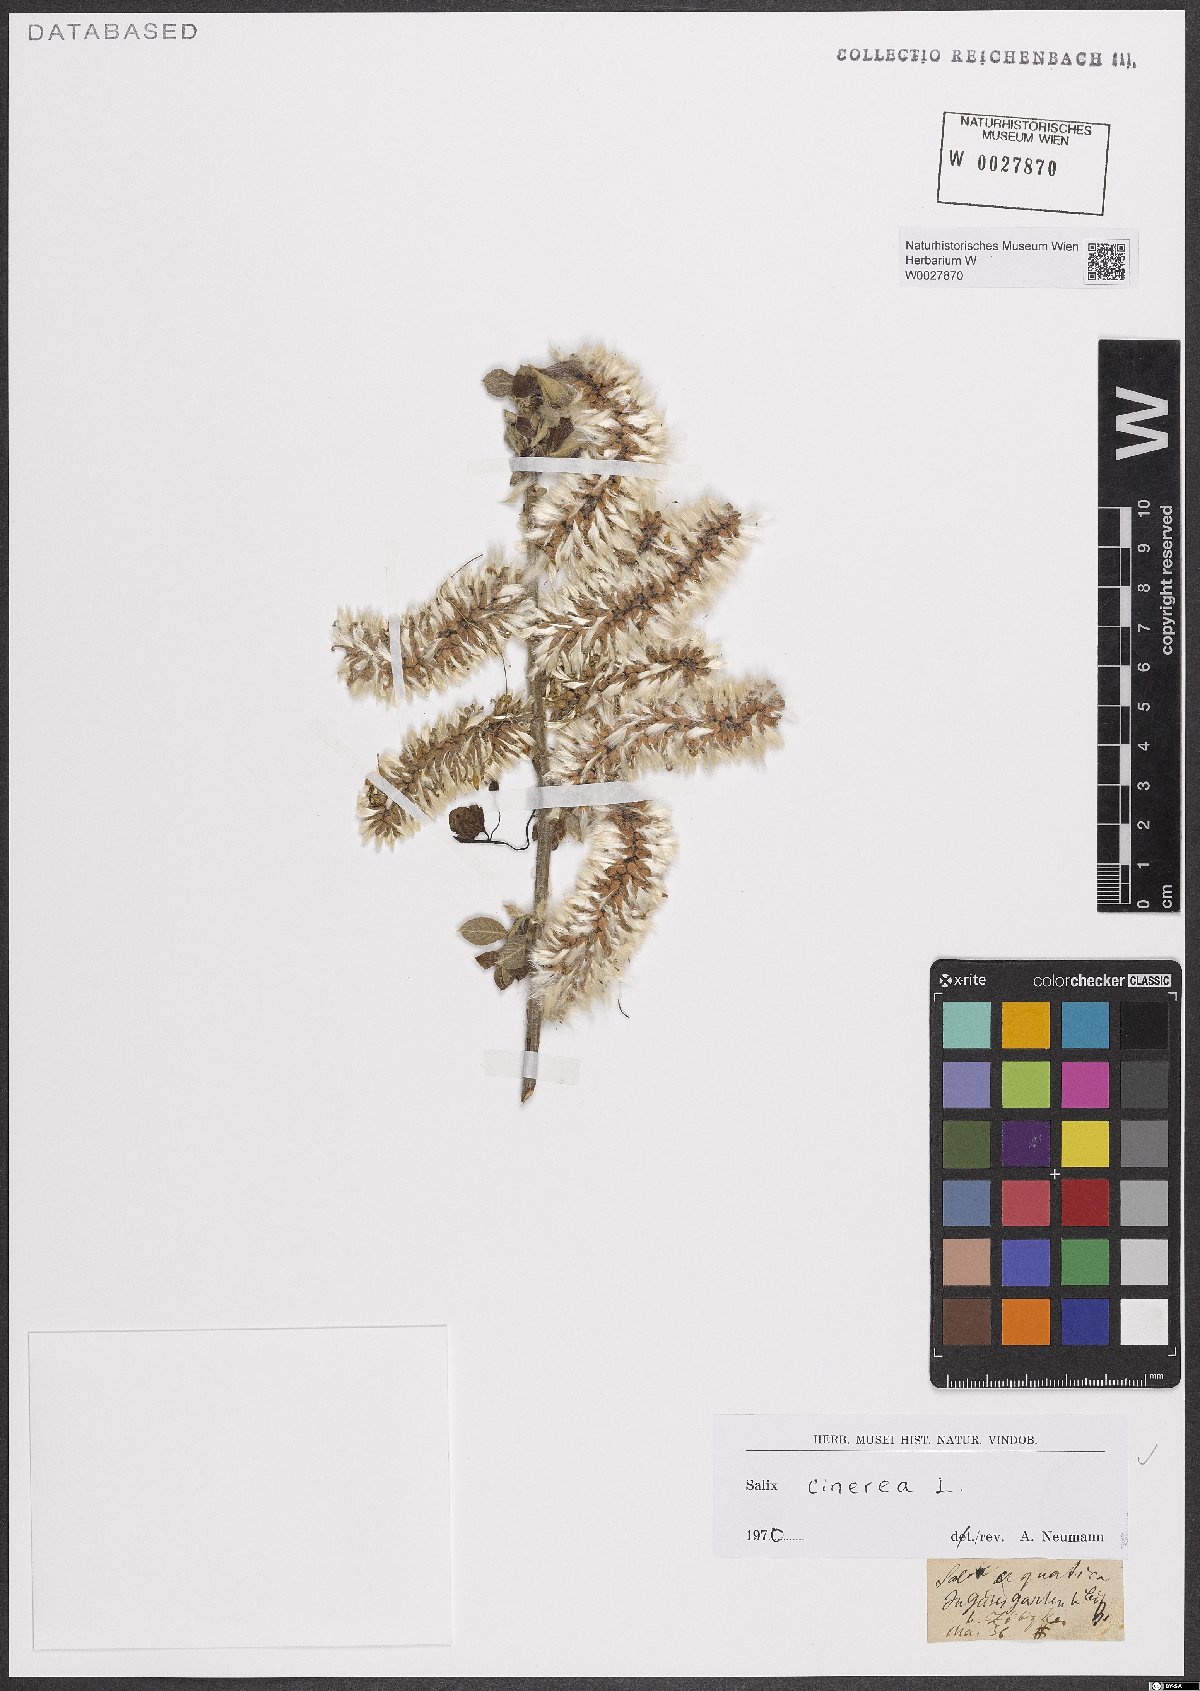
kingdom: Plantae
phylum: Tracheophyta
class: Magnoliopsida
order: Malpighiales
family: Salicaceae
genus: Salix
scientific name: Salix cinerea
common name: Common sallow
